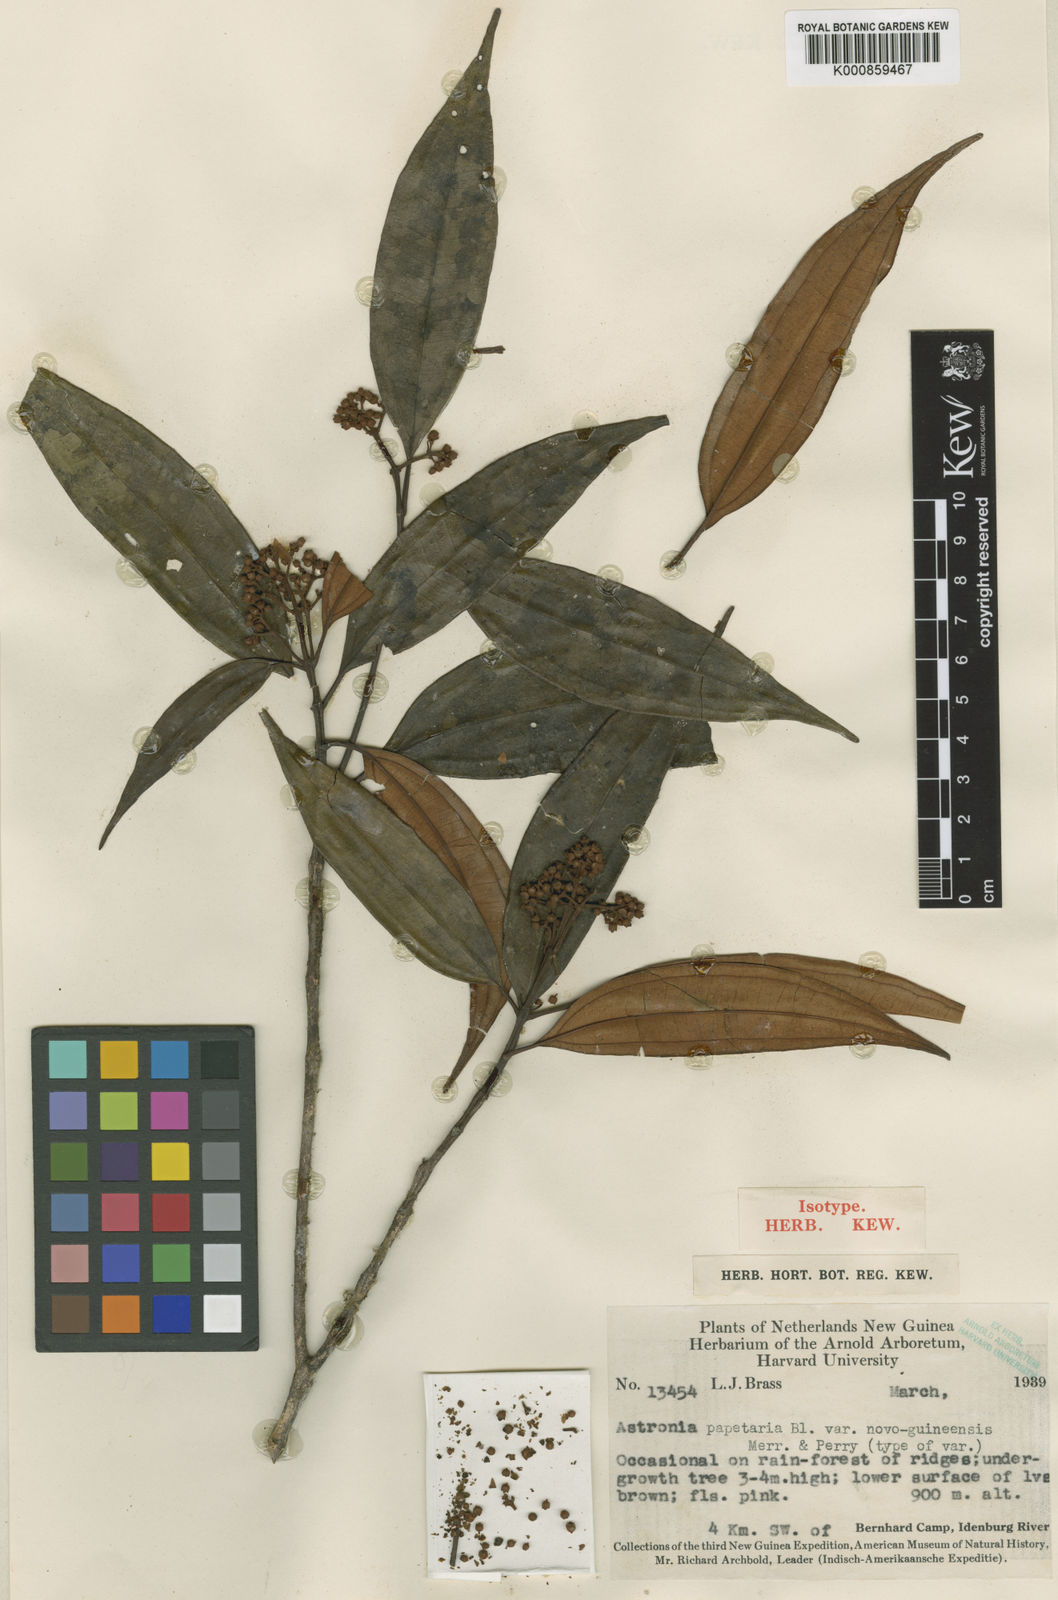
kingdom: Plantae
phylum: Tracheophyta
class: Magnoliopsida
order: Myrtales
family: Melastomataceae
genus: Astronia
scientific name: Astronia rugosa
